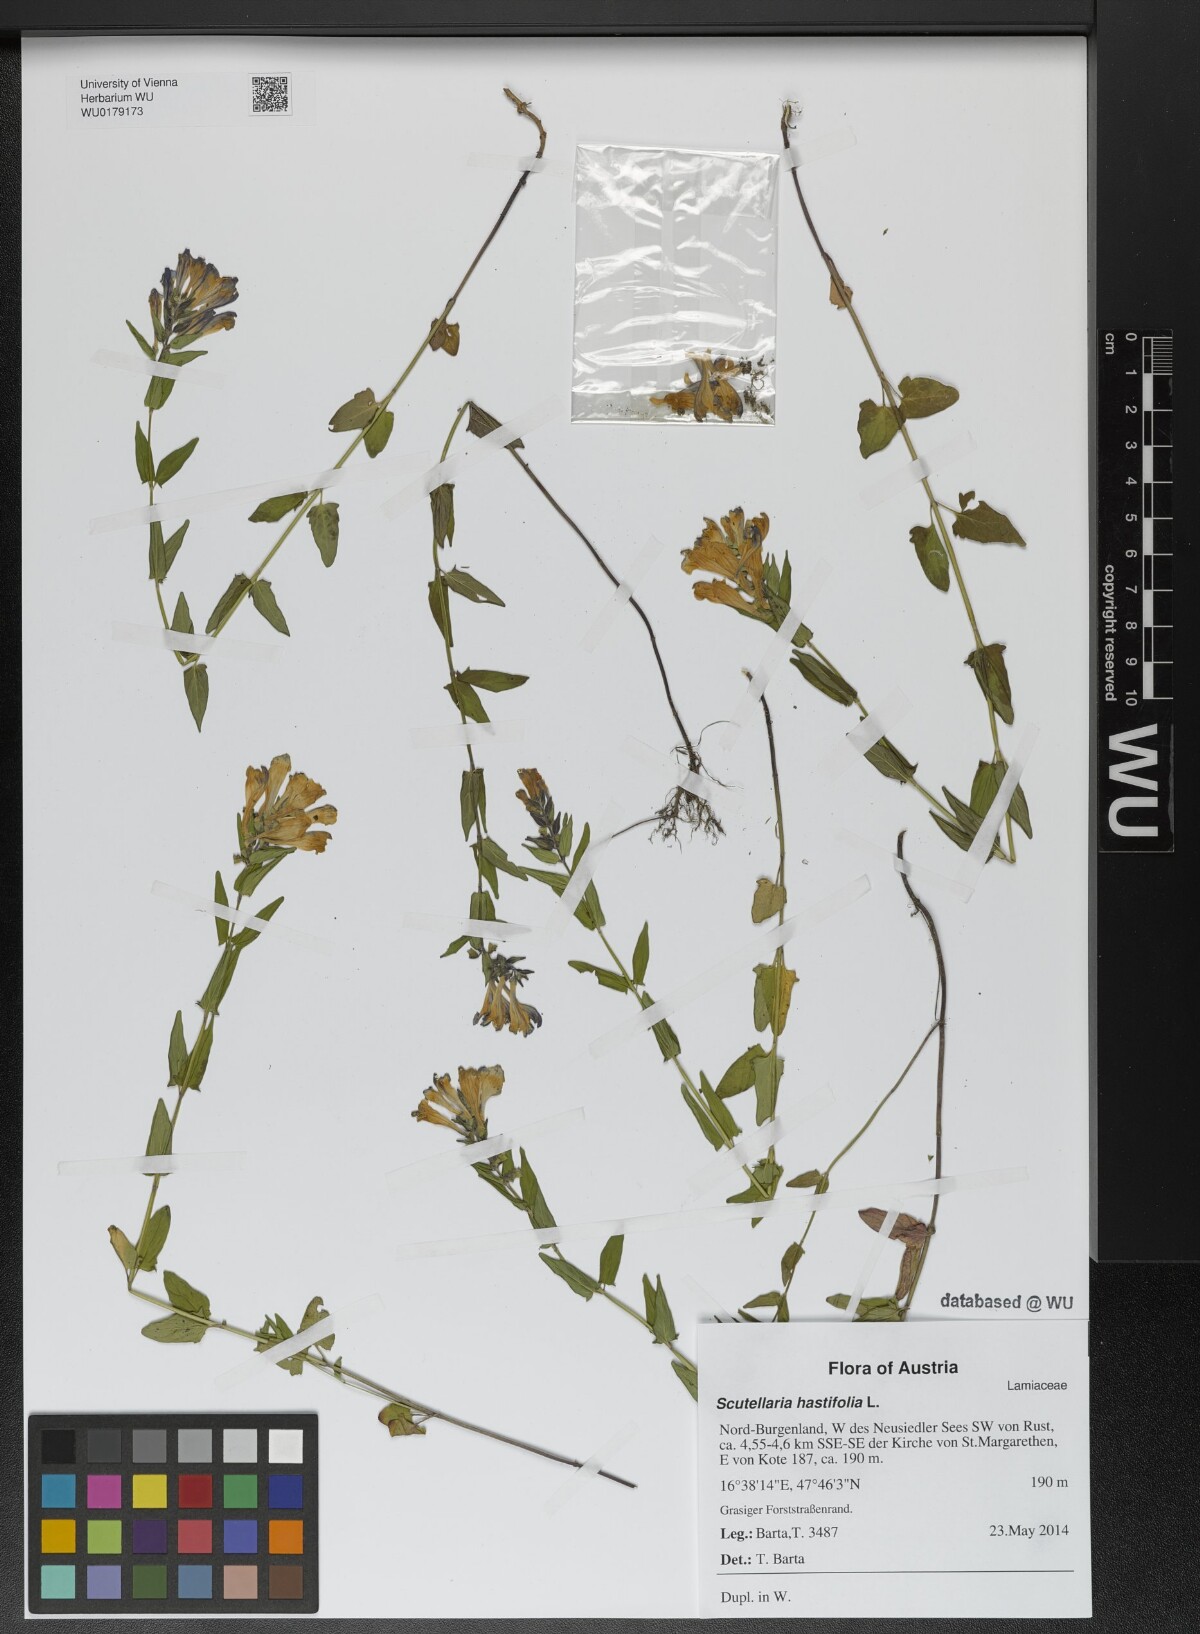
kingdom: Plantae
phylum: Tracheophyta
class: Magnoliopsida
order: Lamiales
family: Lamiaceae
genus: Scutellaria
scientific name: Scutellaria hastifolia
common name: Norfolk skullcap
